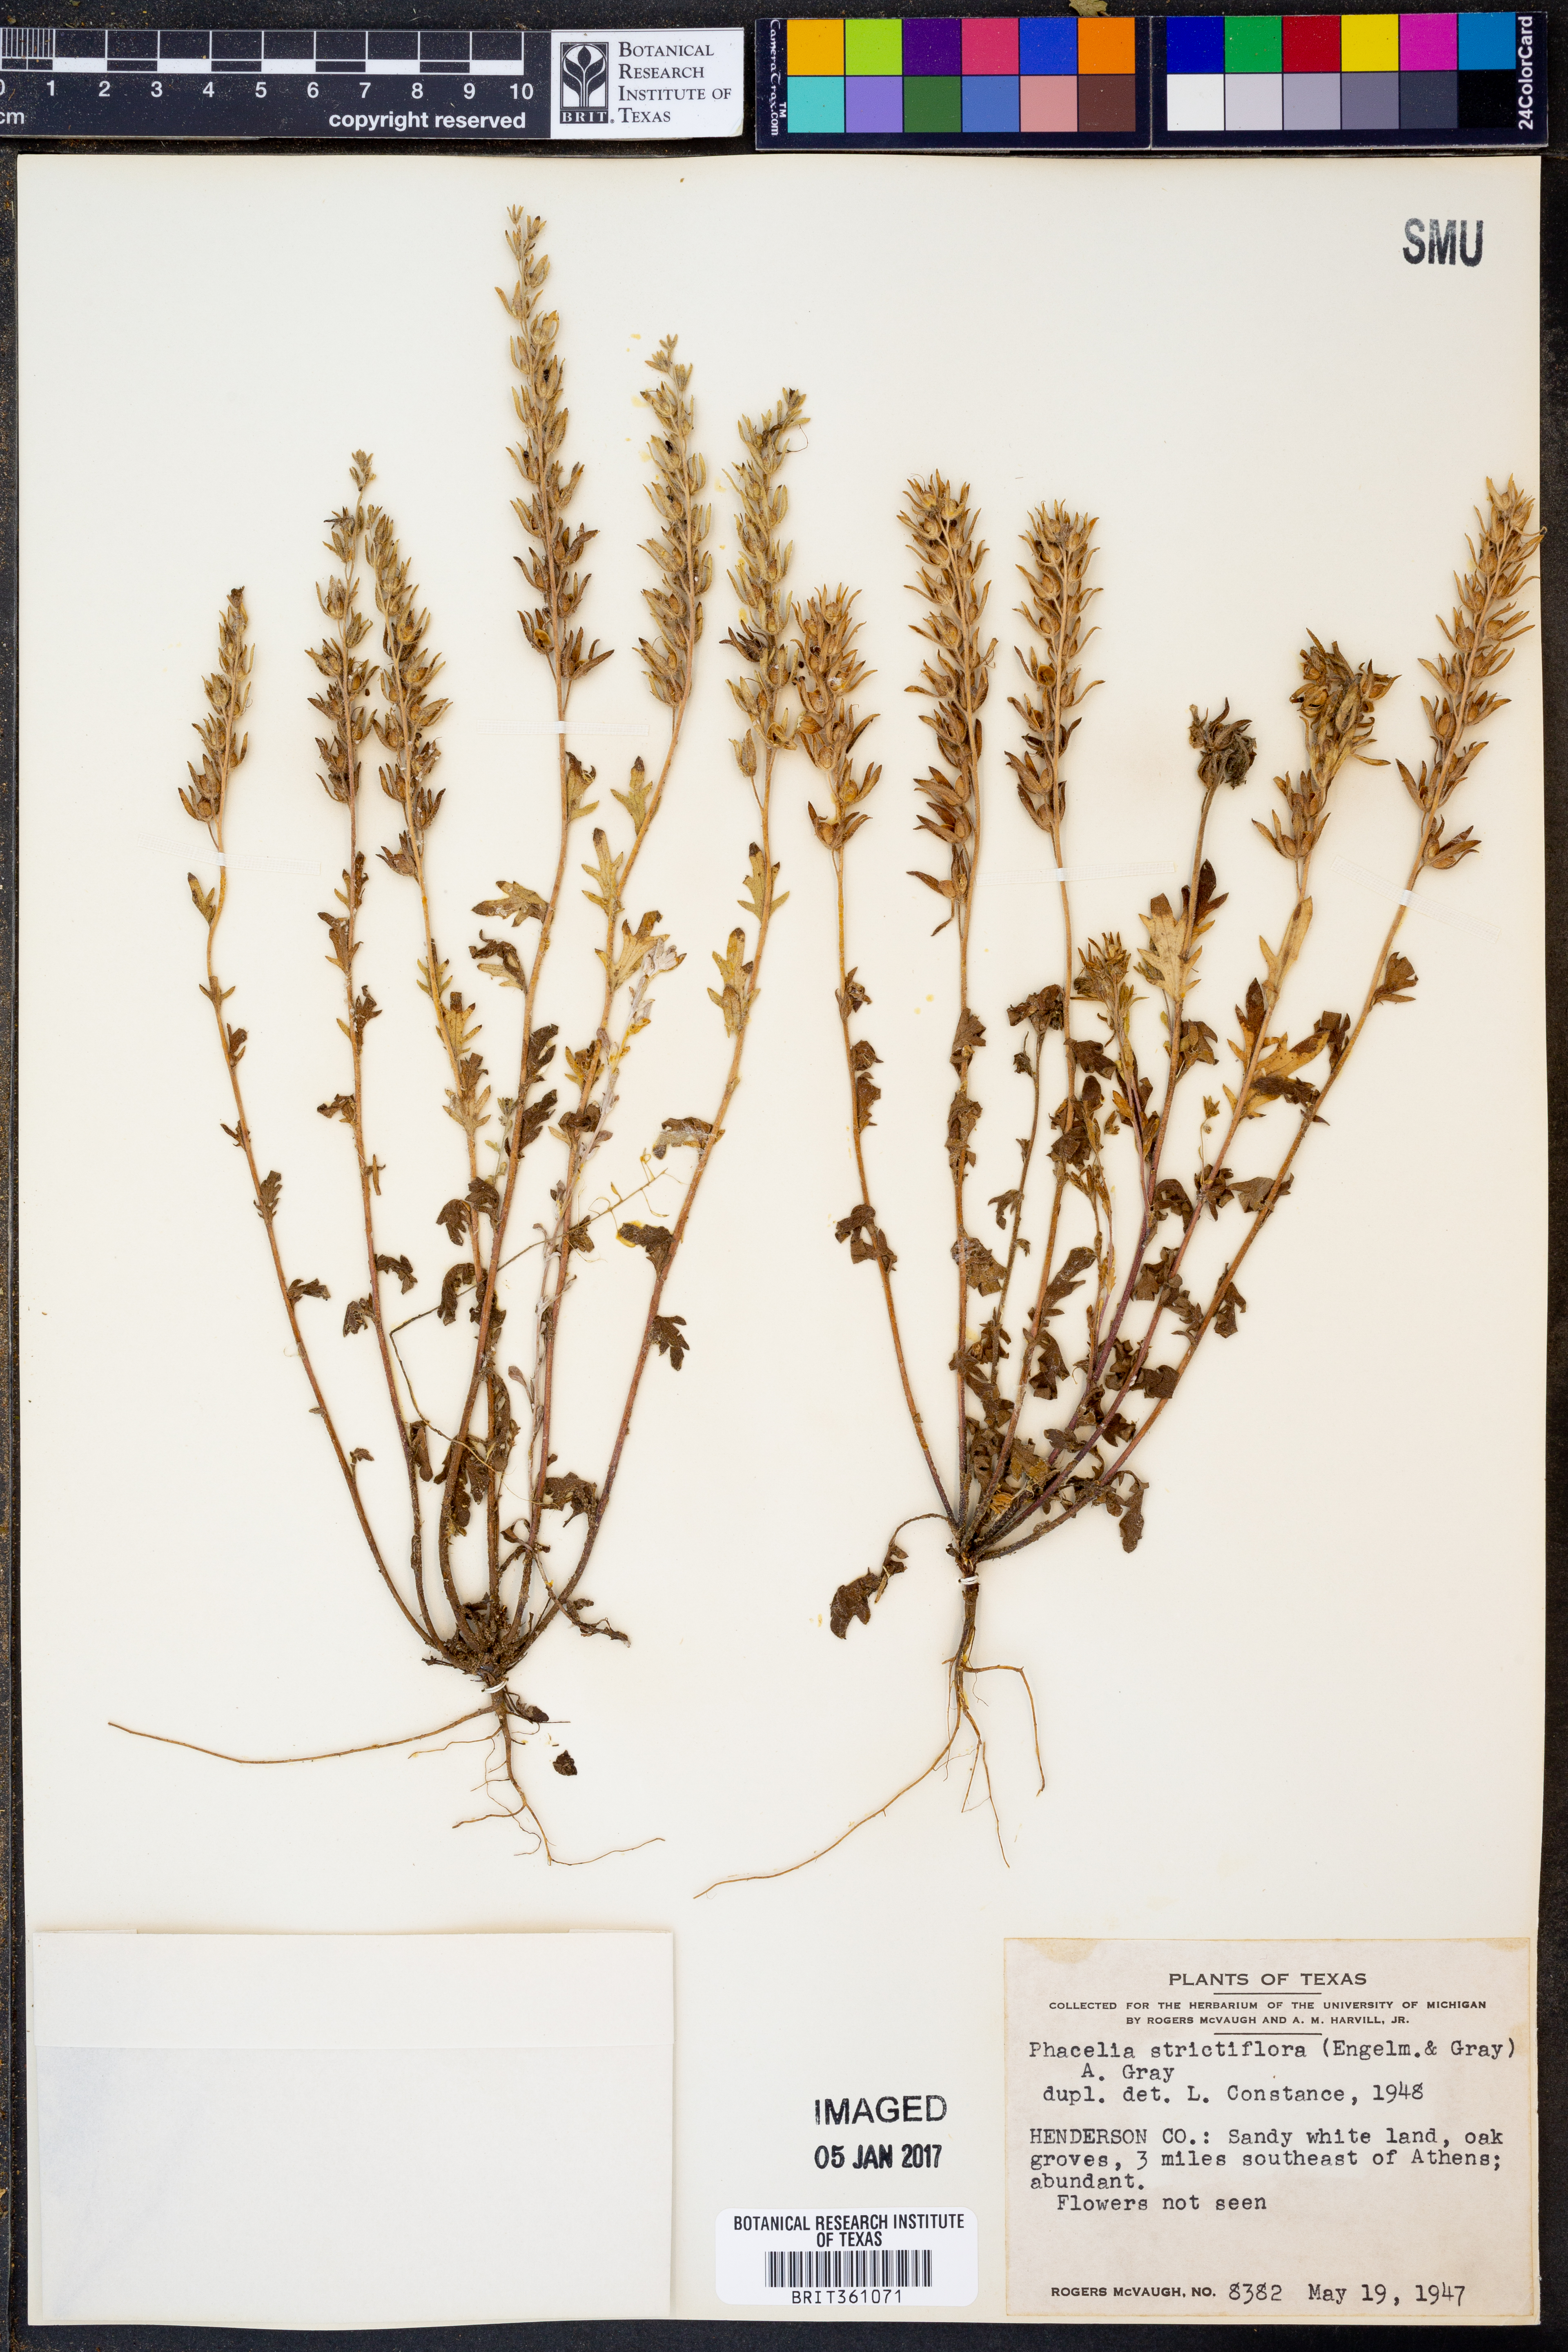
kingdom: Plantae
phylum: Tracheophyta
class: Magnoliopsida
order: Boraginales
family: Hydrophyllaceae
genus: Phacelia
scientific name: Phacelia strictiflora
